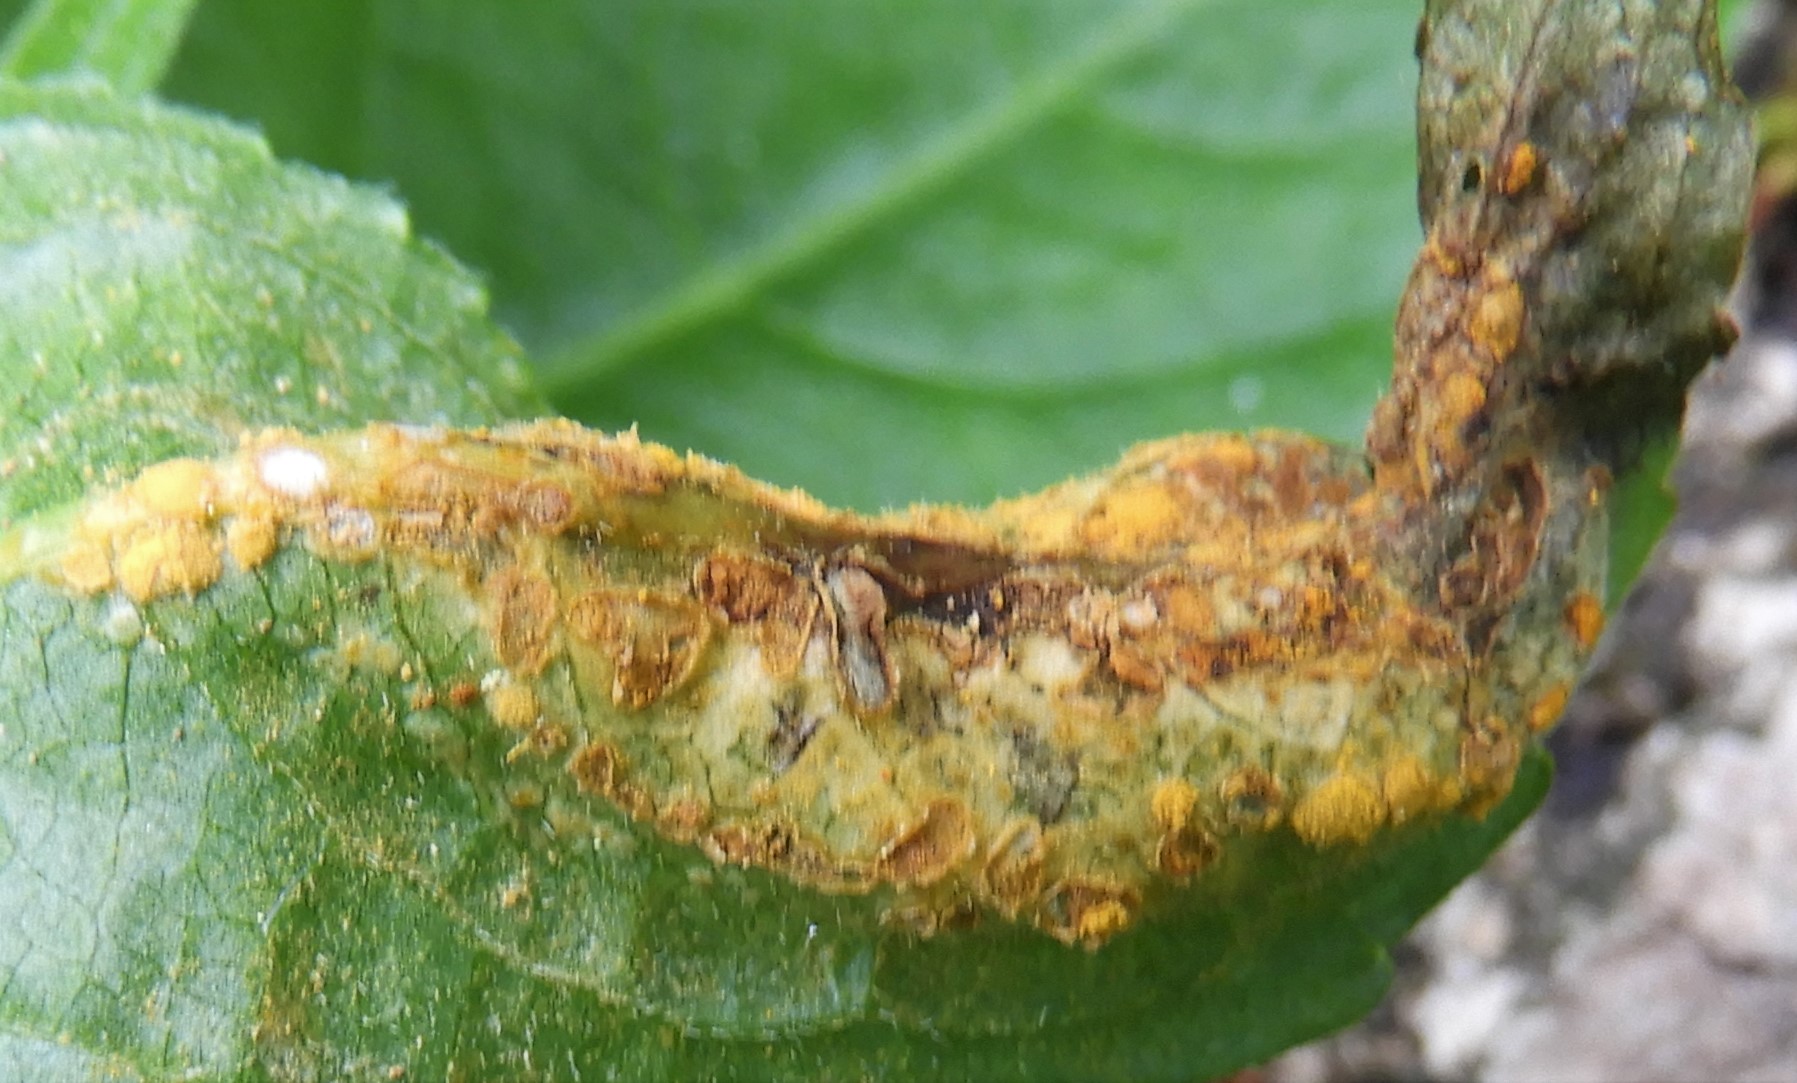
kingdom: Fungi
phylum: Basidiomycota
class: Pucciniomycetes
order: Pucciniales
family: Melampsoraceae
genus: Melampsora
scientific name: Melampsora populnea
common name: poppel-skorperust
